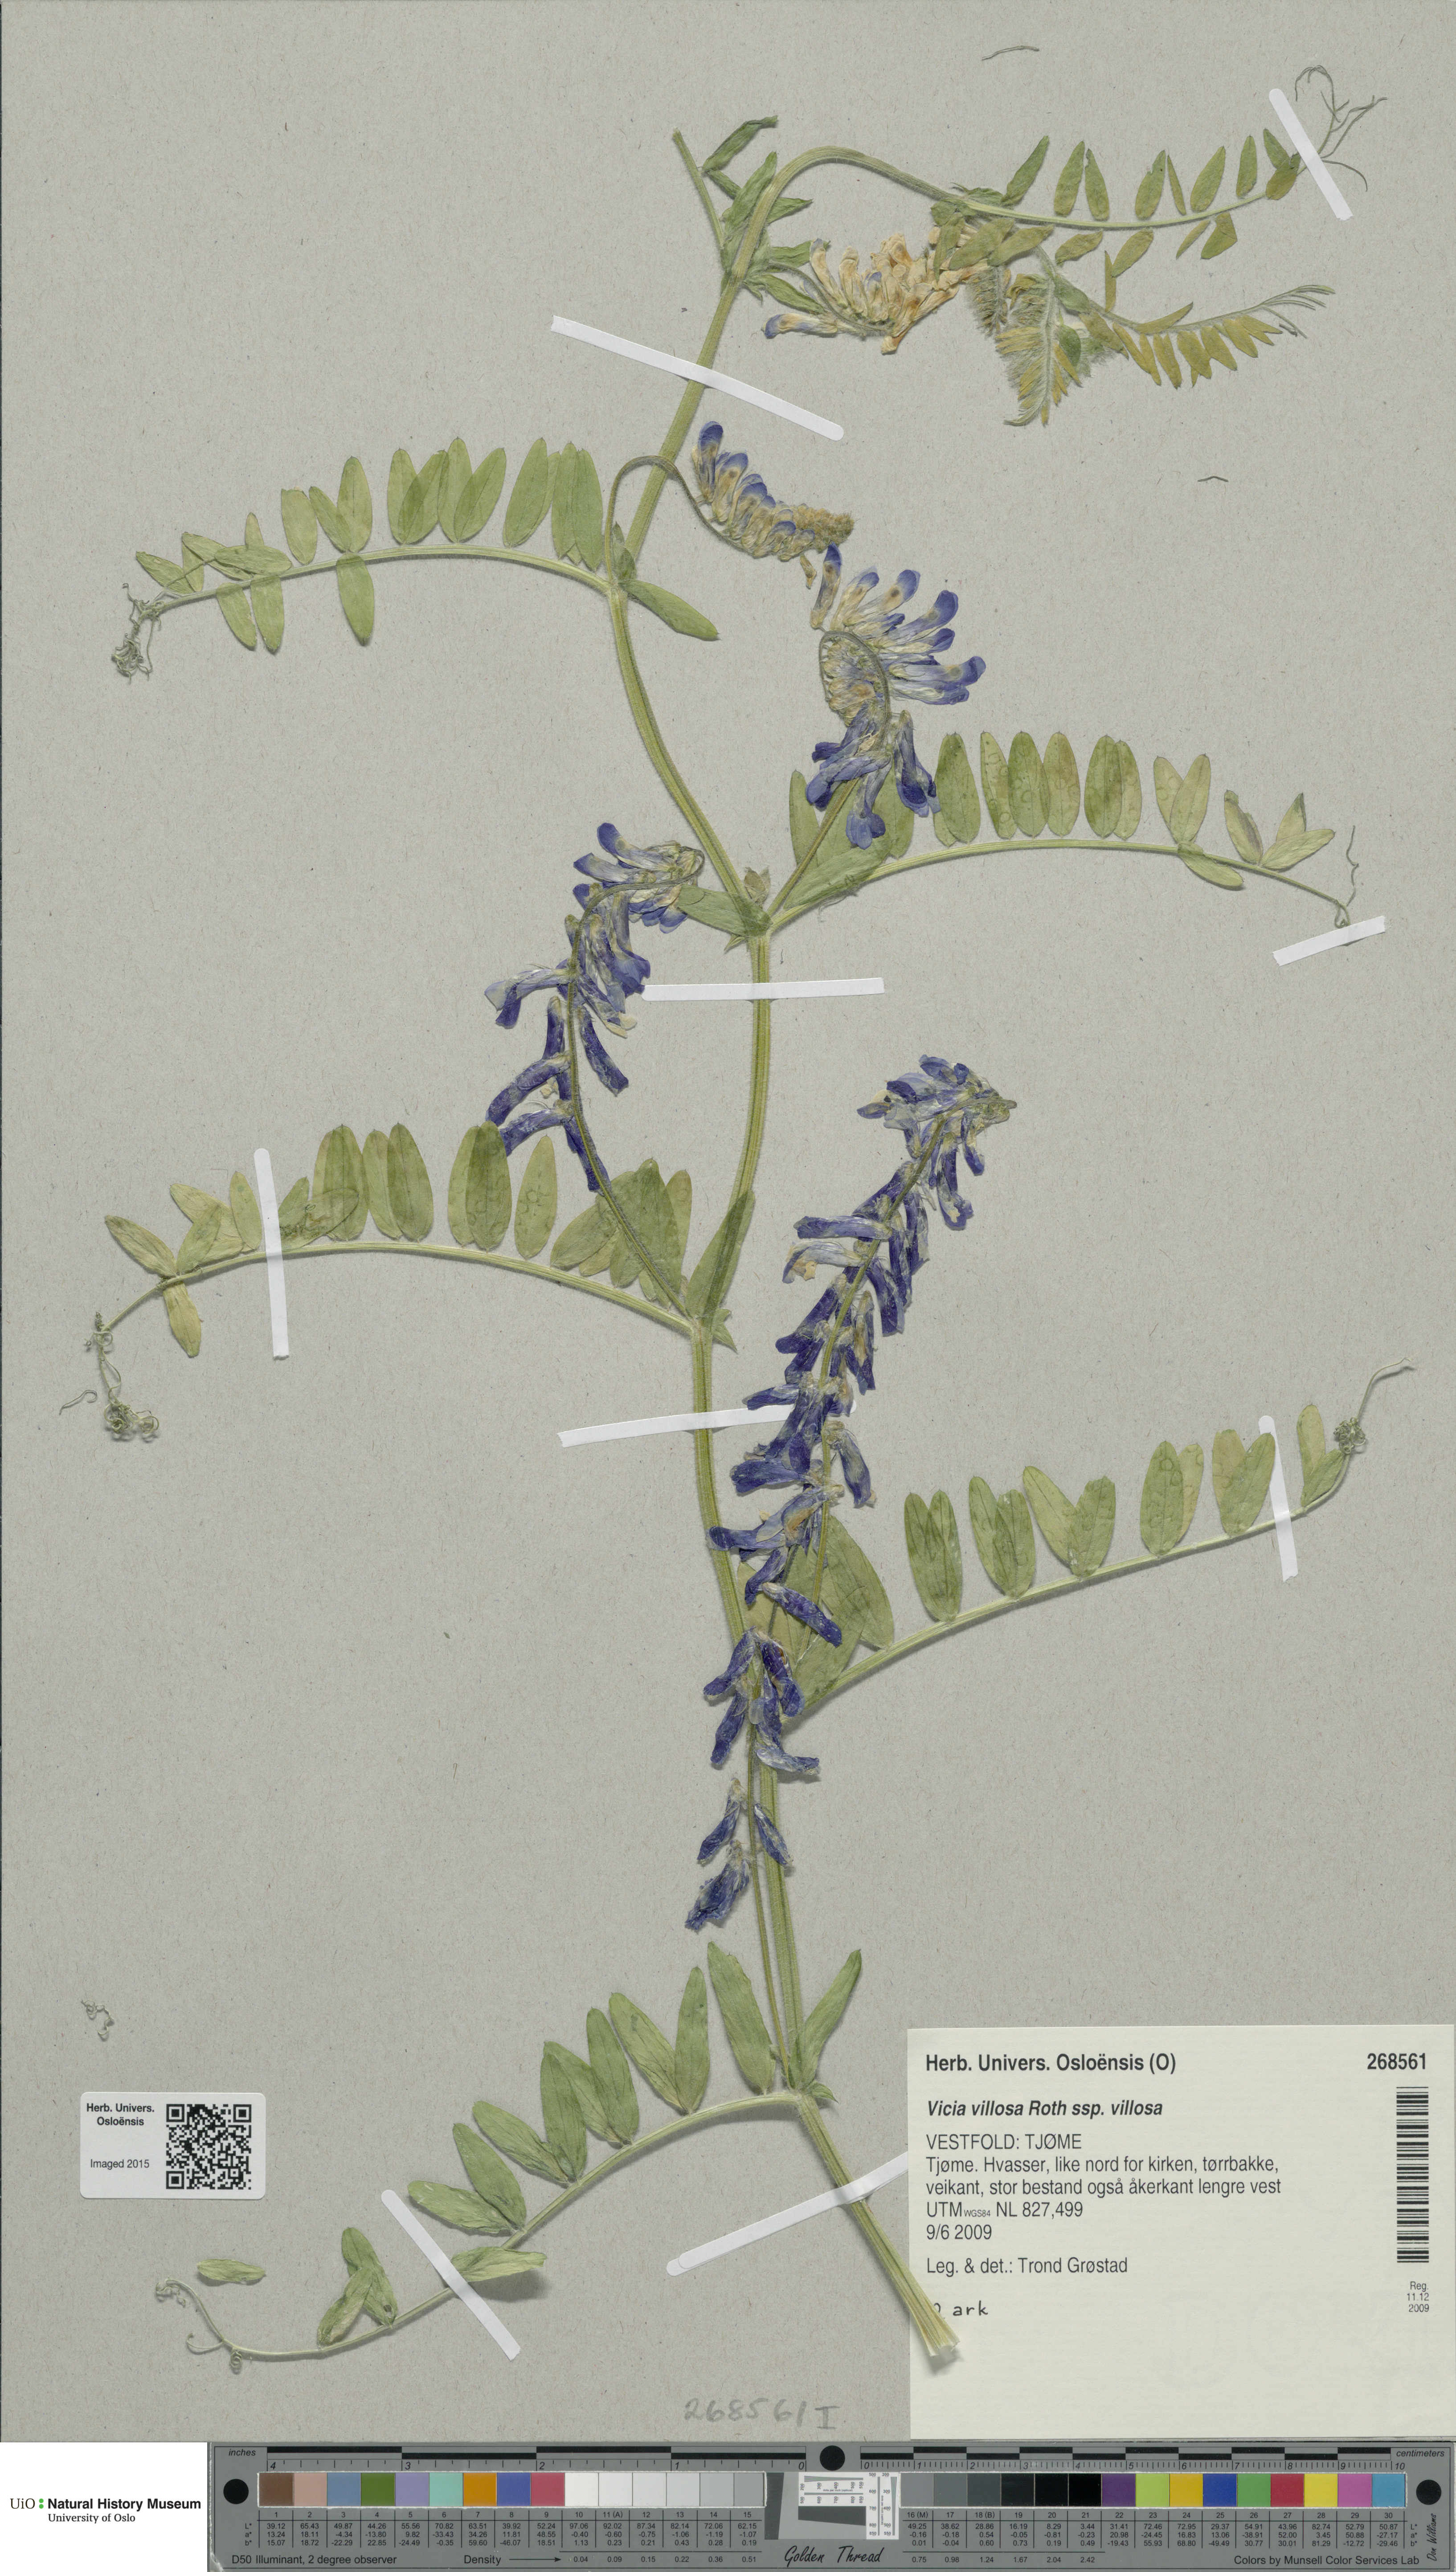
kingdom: Plantae
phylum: Tracheophyta
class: Magnoliopsida
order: Fabales
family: Fabaceae
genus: Vicia
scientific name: Vicia villosa
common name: Fodder vetch
